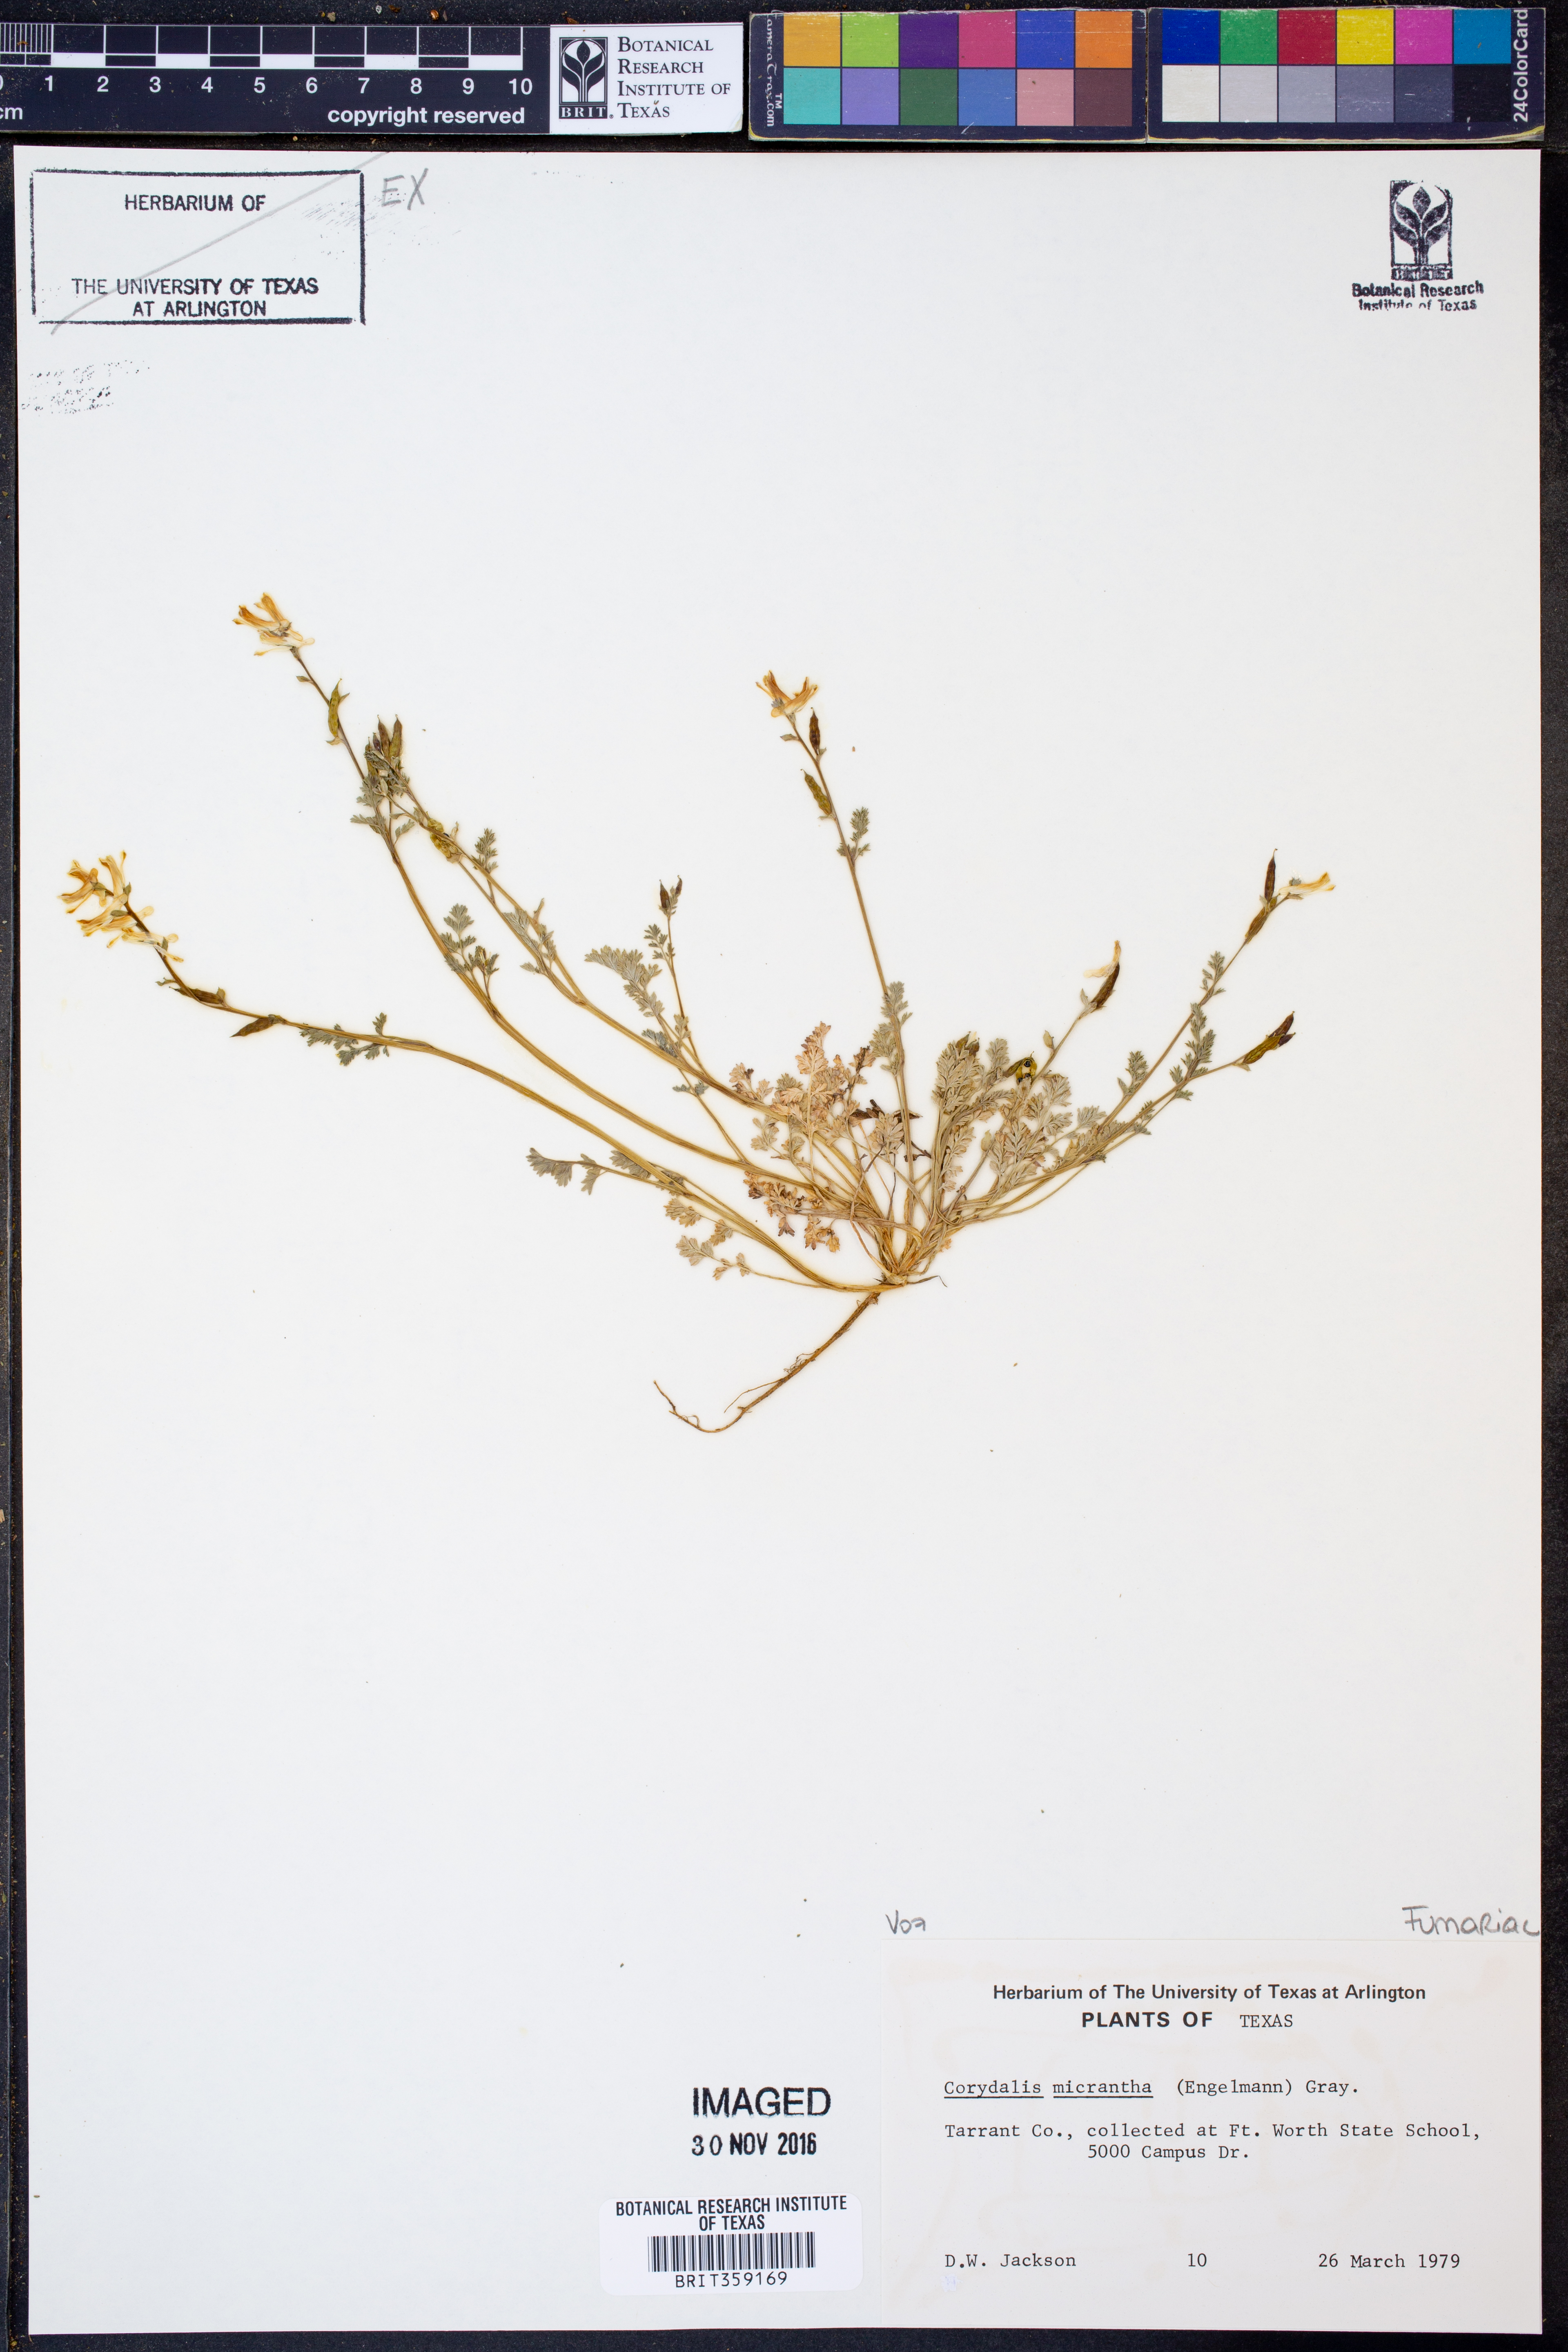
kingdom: Plantae
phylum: Tracheophyta
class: Magnoliopsida
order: Ranunculales
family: Papaveraceae
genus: Corydalis
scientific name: Corydalis micrantha
